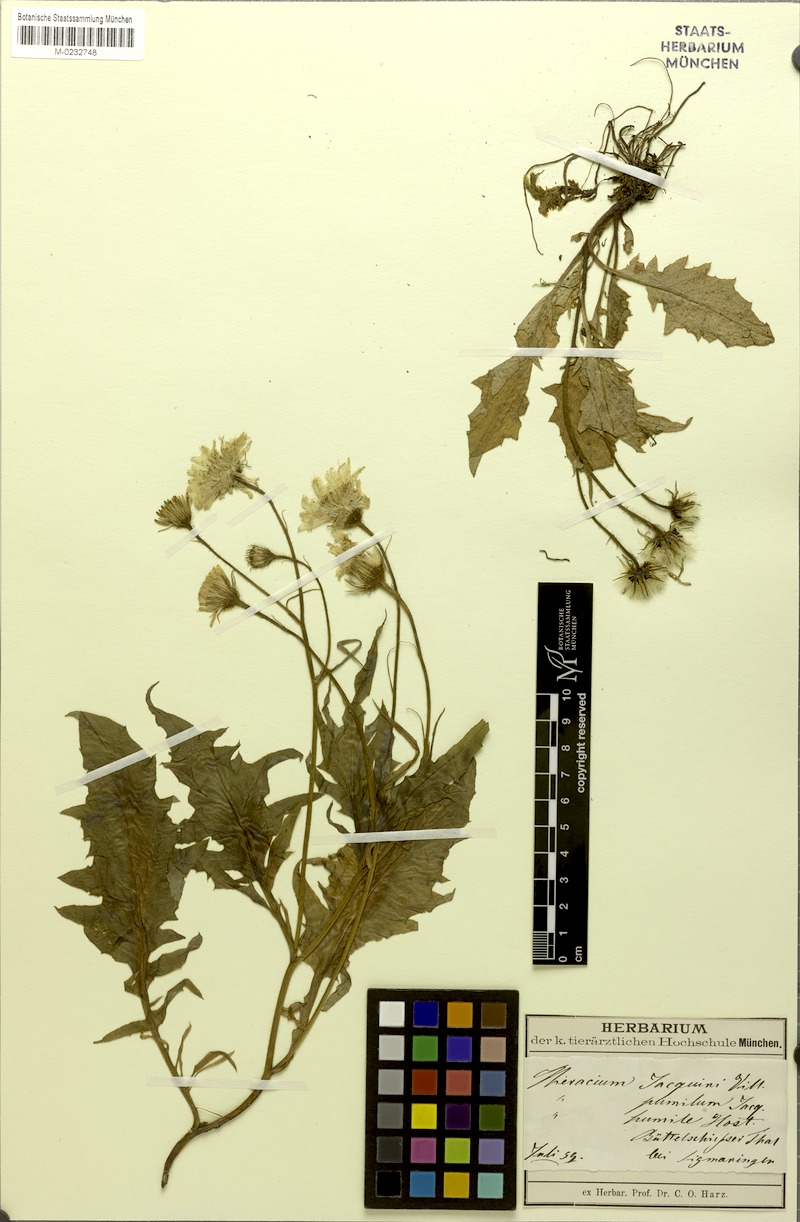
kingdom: Plantae
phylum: Tracheophyta
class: Magnoliopsida
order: Asterales
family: Asteraceae
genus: Hieracium
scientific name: Hieracium humile
